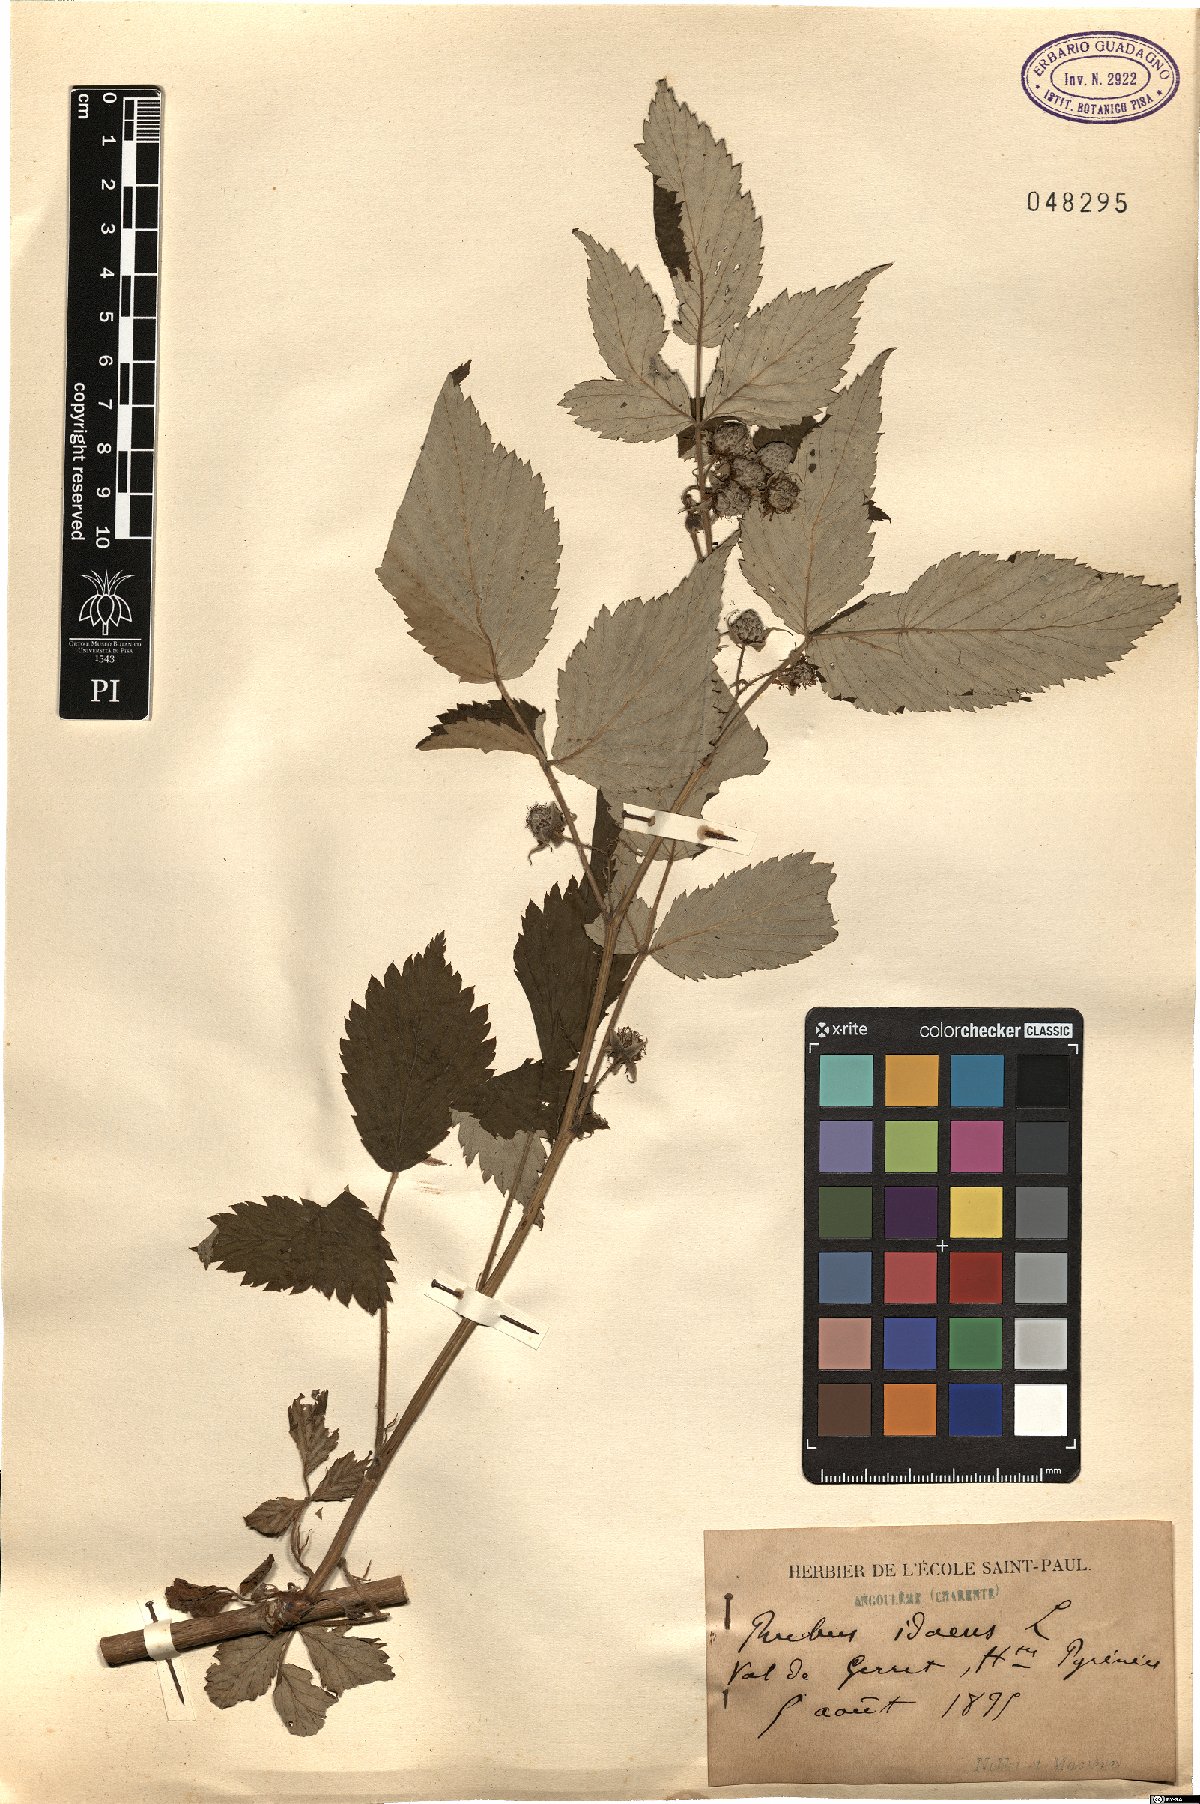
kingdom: Plantae
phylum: Tracheophyta
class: Magnoliopsida
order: Rosales
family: Rosaceae
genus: Rubus
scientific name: Rubus idaeus
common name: Raspberry
